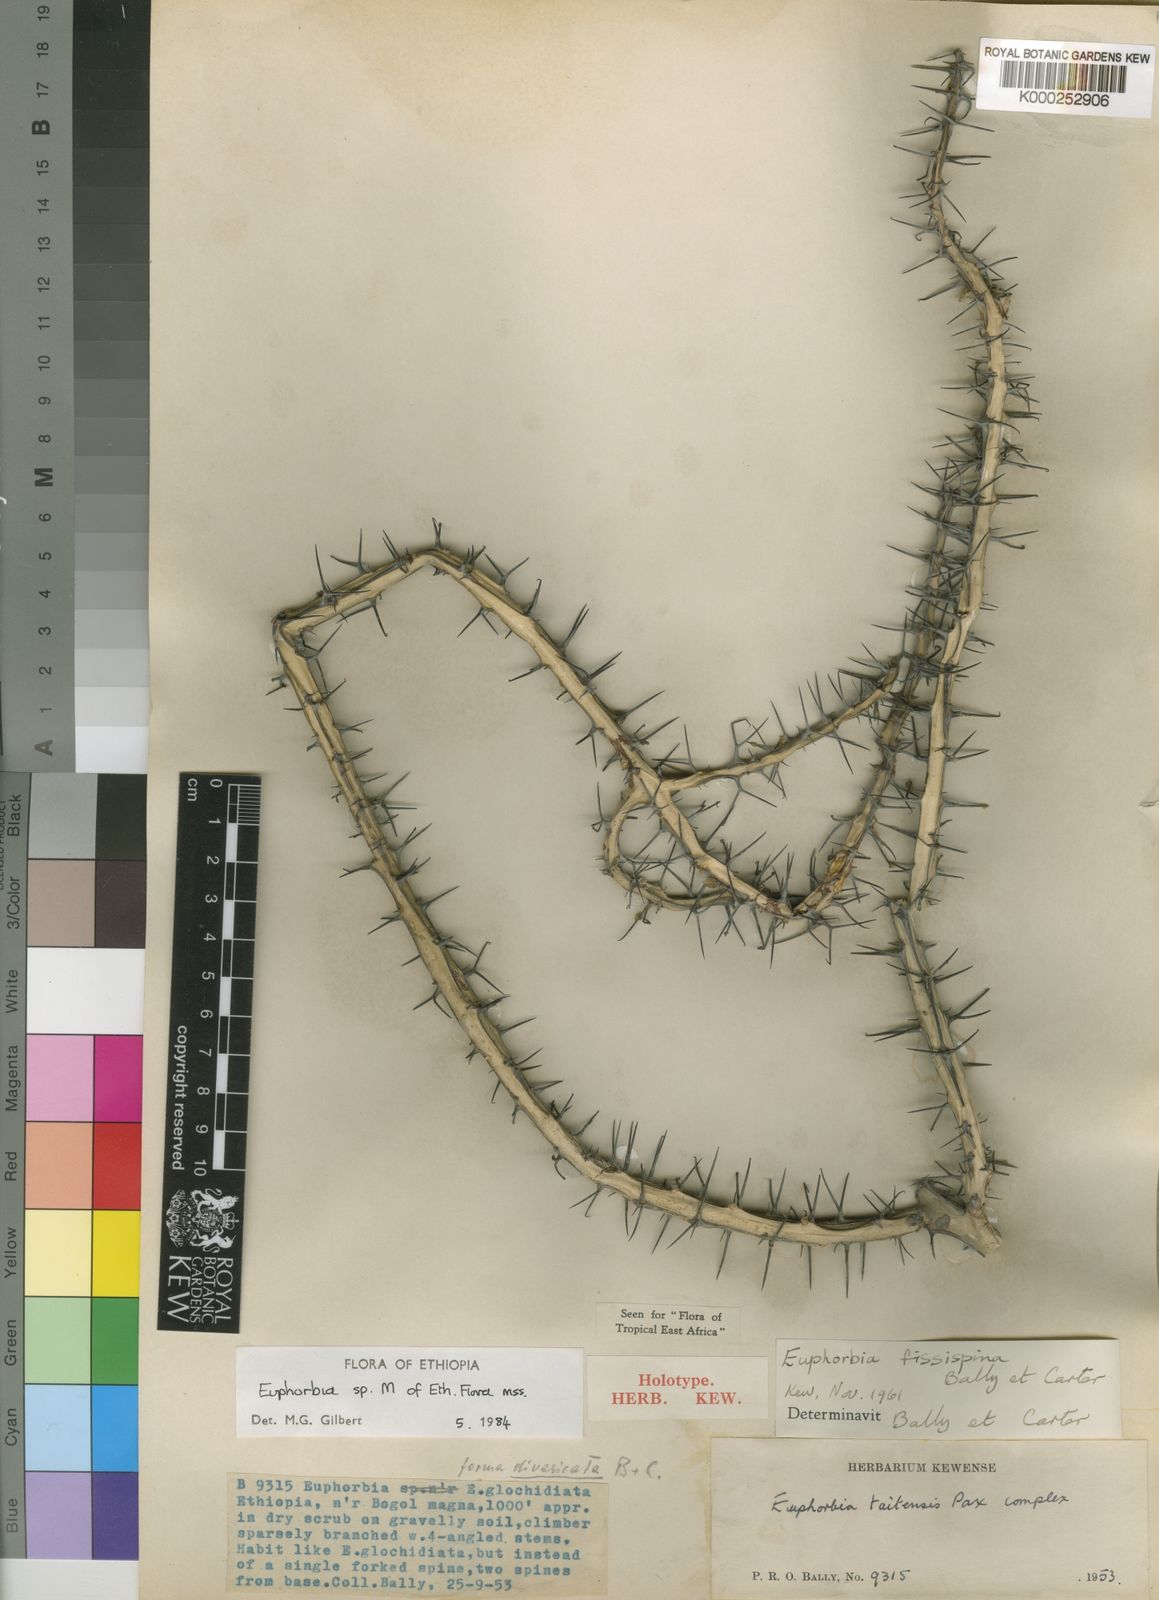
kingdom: Plantae
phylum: Tracheophyta
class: Magnoliopsida
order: Malpighiales
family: Euphorbiaceae
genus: Euphorbia
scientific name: Euphorbia fissispina
